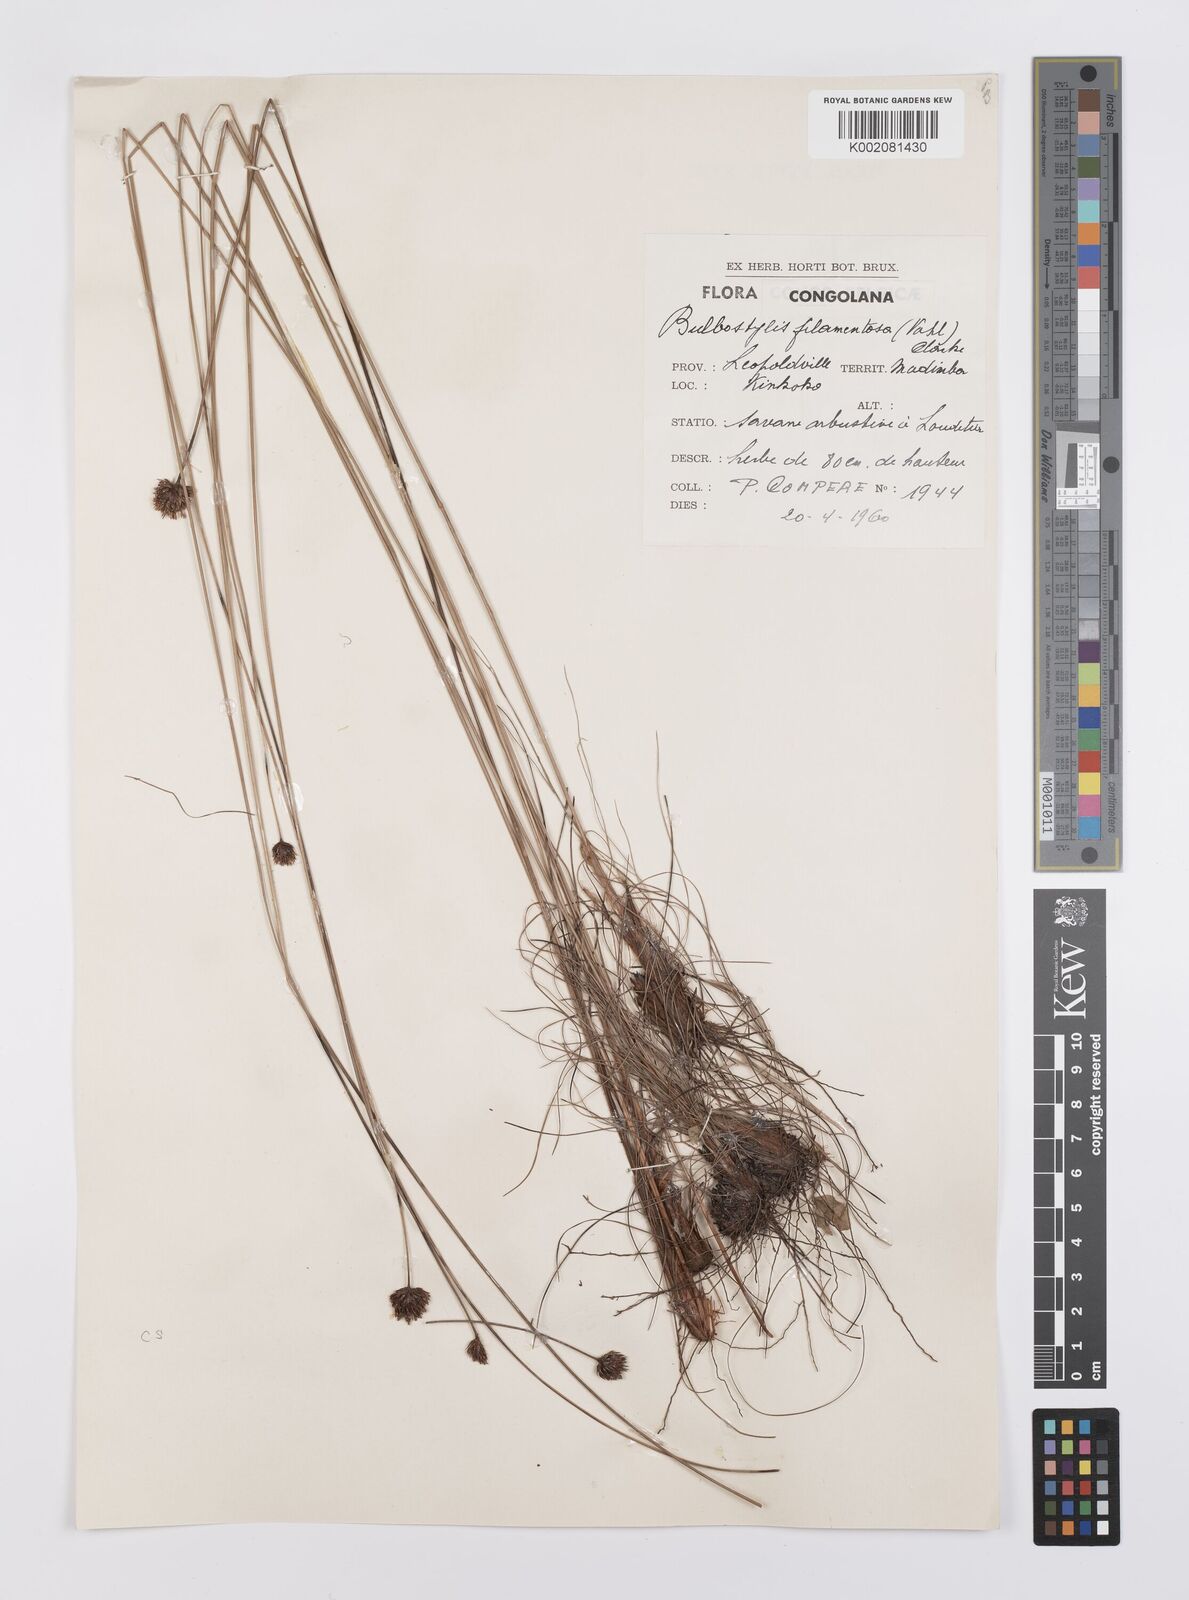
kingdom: Plantae
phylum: Tracheophyta
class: Liliopsida
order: Poales
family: Cyperaceae
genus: Bulbostylis
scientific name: Bulbostylis filamentosa
